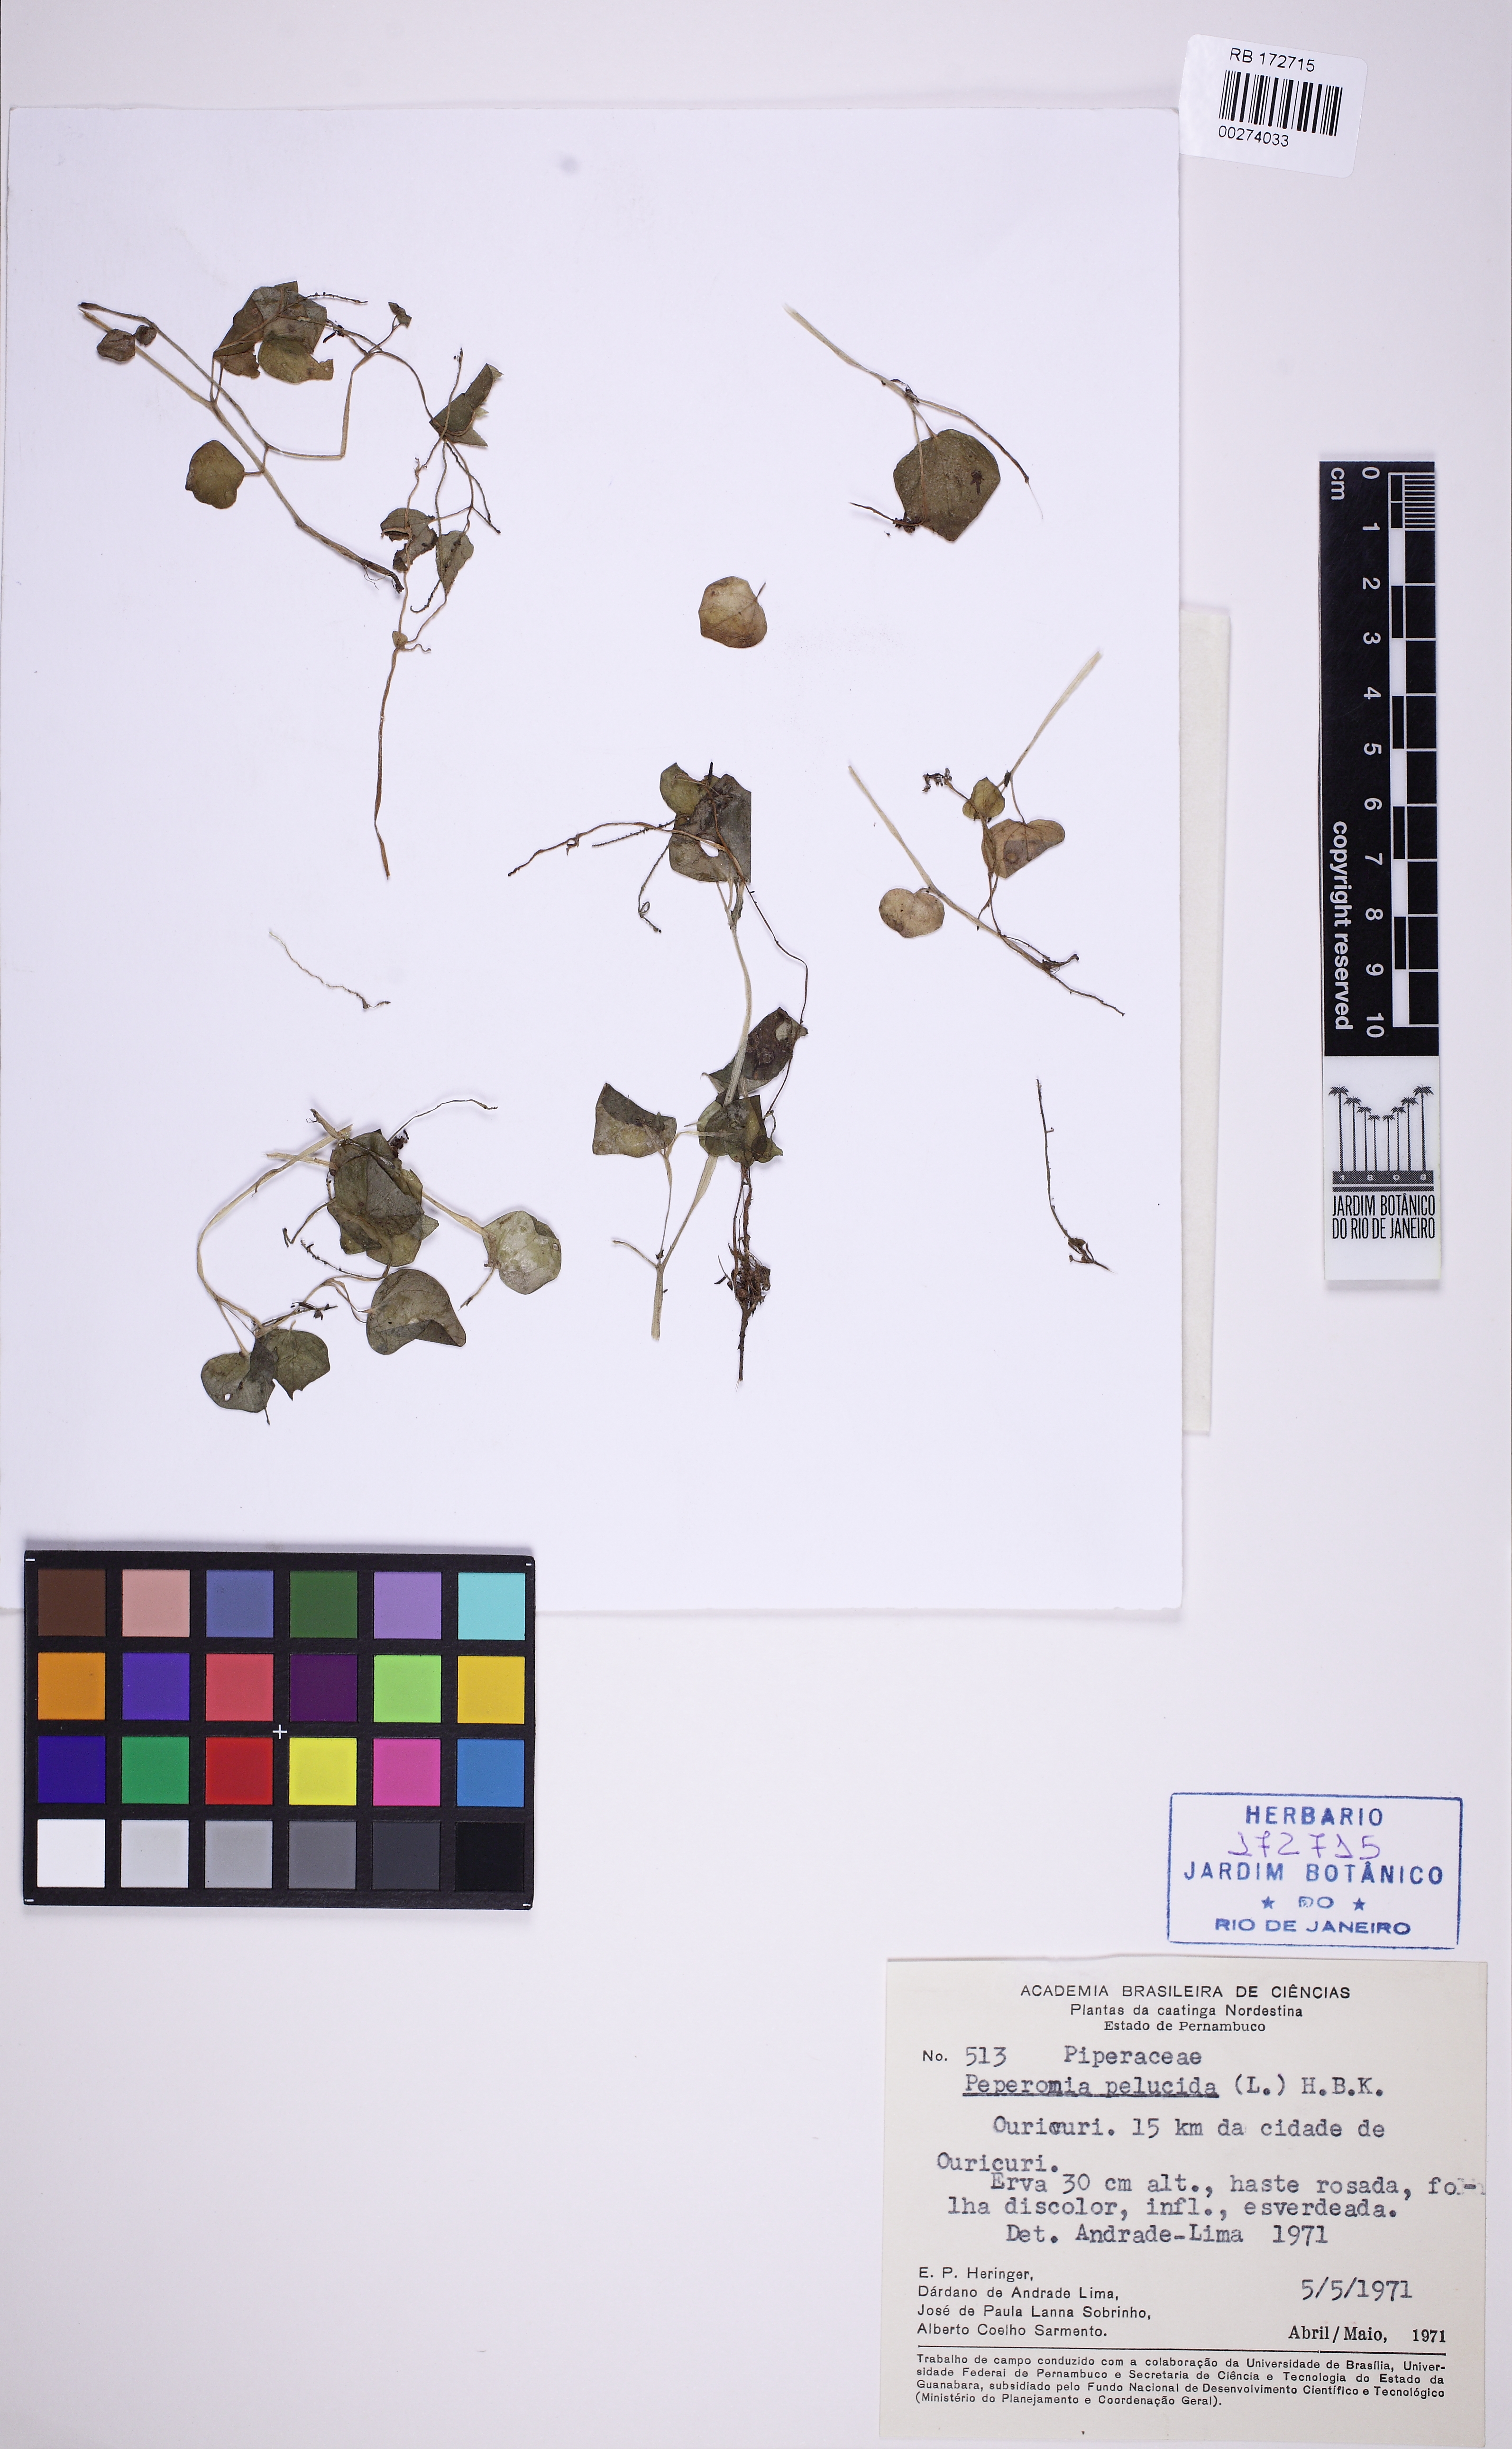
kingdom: Plantae
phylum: Tracheophyta
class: Magnoliopsida
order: Piperales
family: Piperaceae
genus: Peperomia
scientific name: Peperomia pellucida
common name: Man to man
